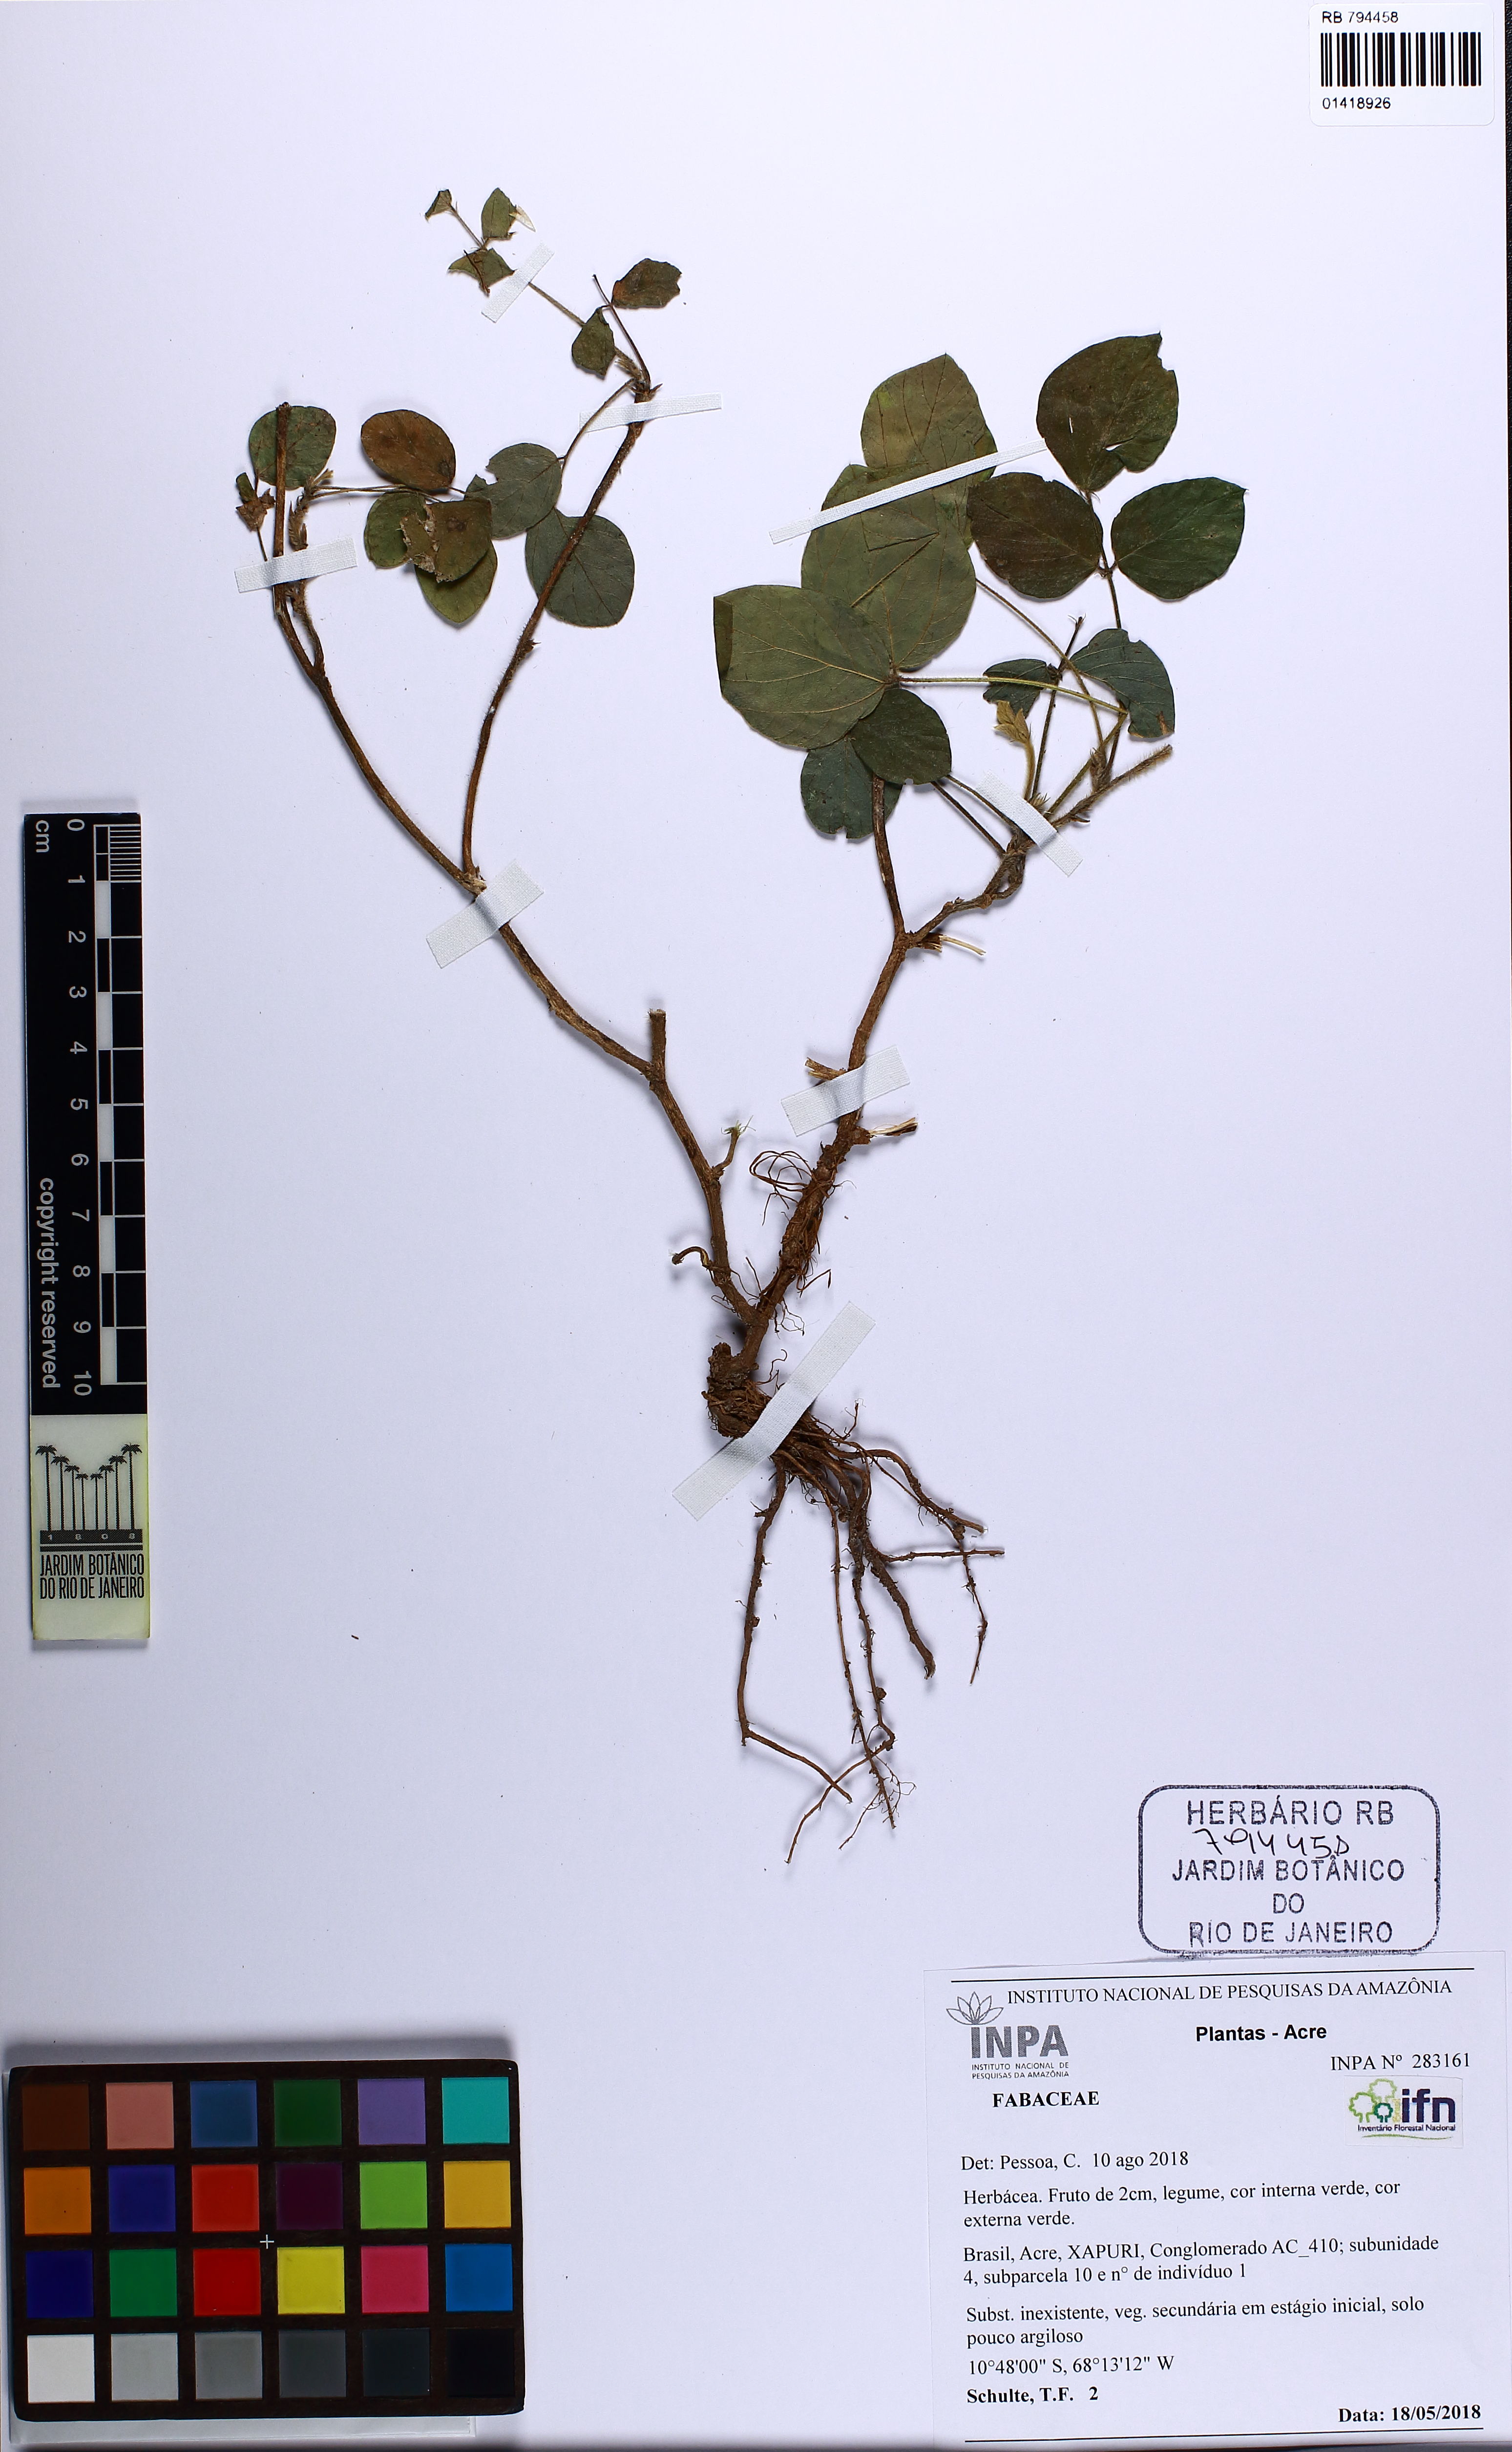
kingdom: Plantae
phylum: Tracheophyta
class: Magnoliopsida
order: Fabales
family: Fabaceae
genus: Grona
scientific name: Grona adscendens
